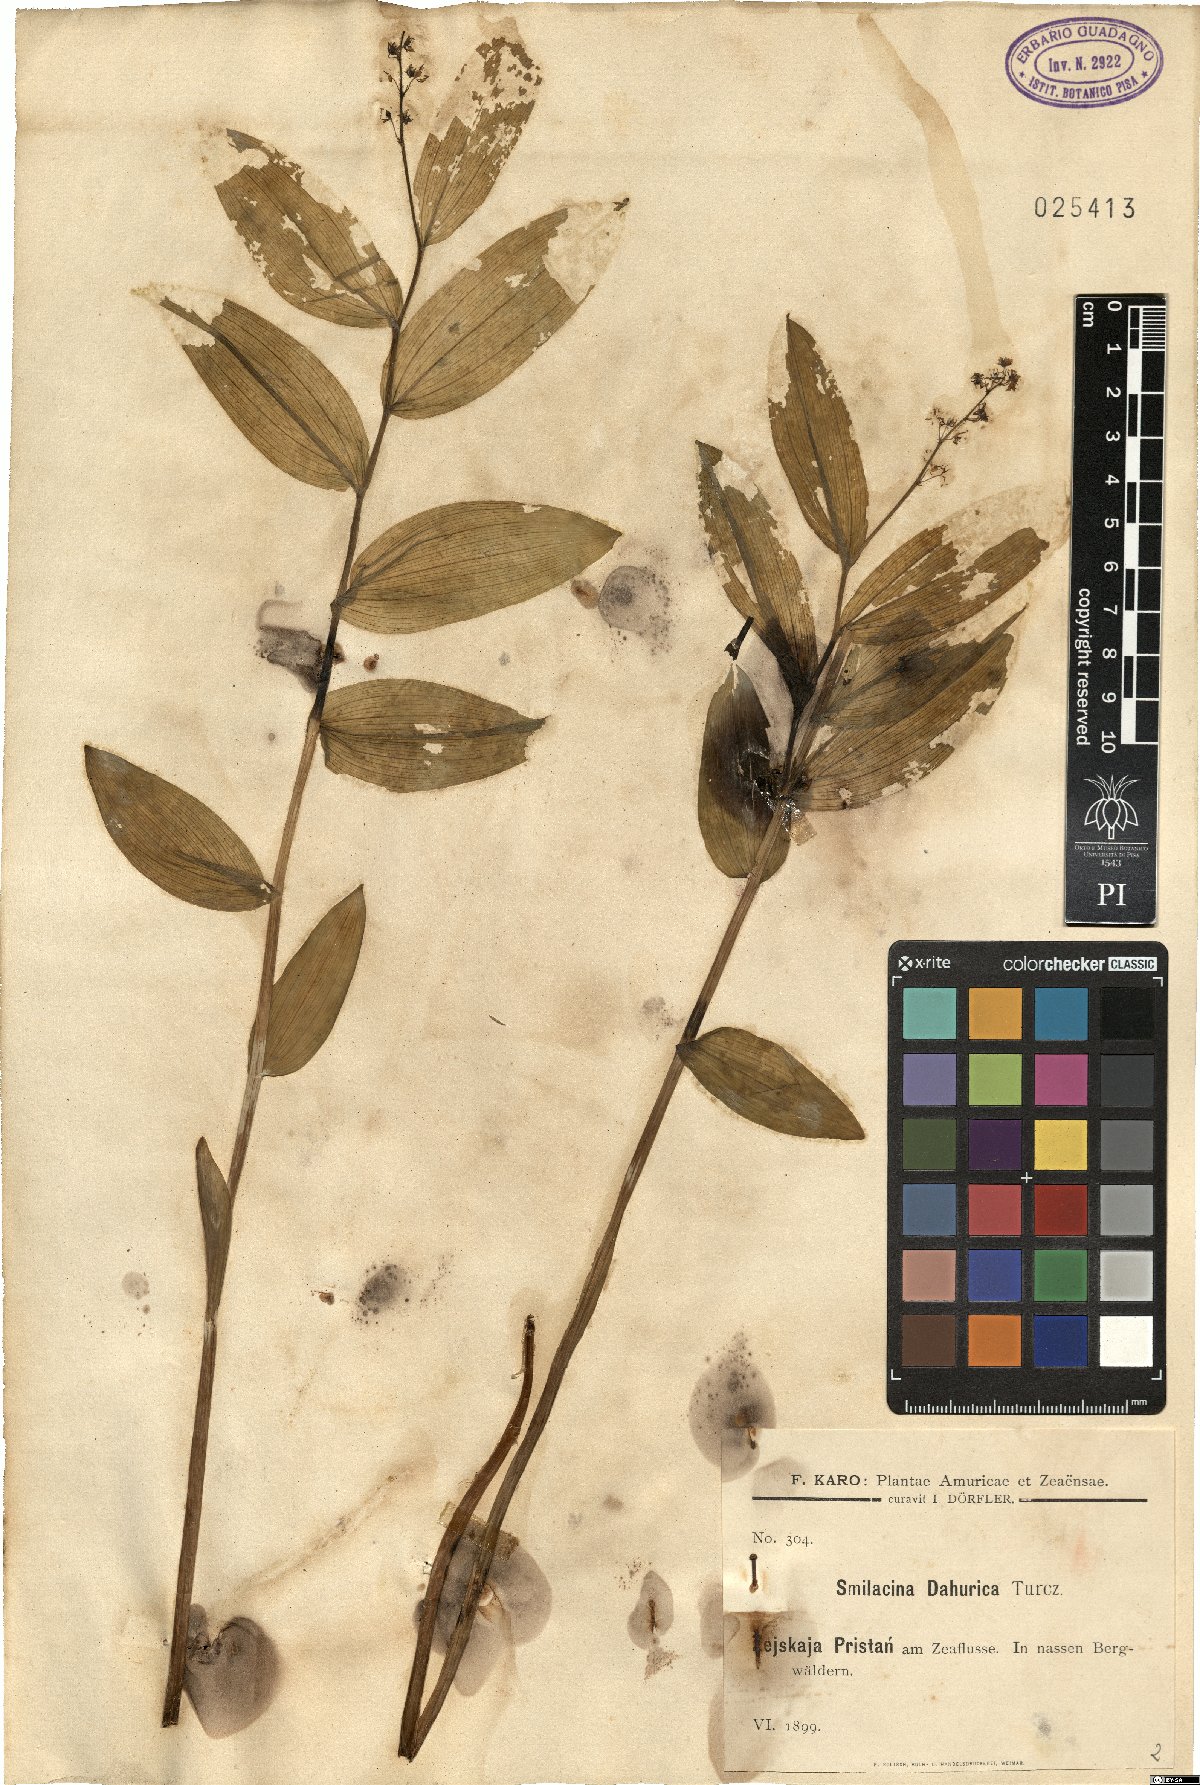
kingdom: Plantae
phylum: Tracheophyta
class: Liliopsida
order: Asparagales
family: Asparagaceae
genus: Maianthemum
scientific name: Maianthemum dahuricum
